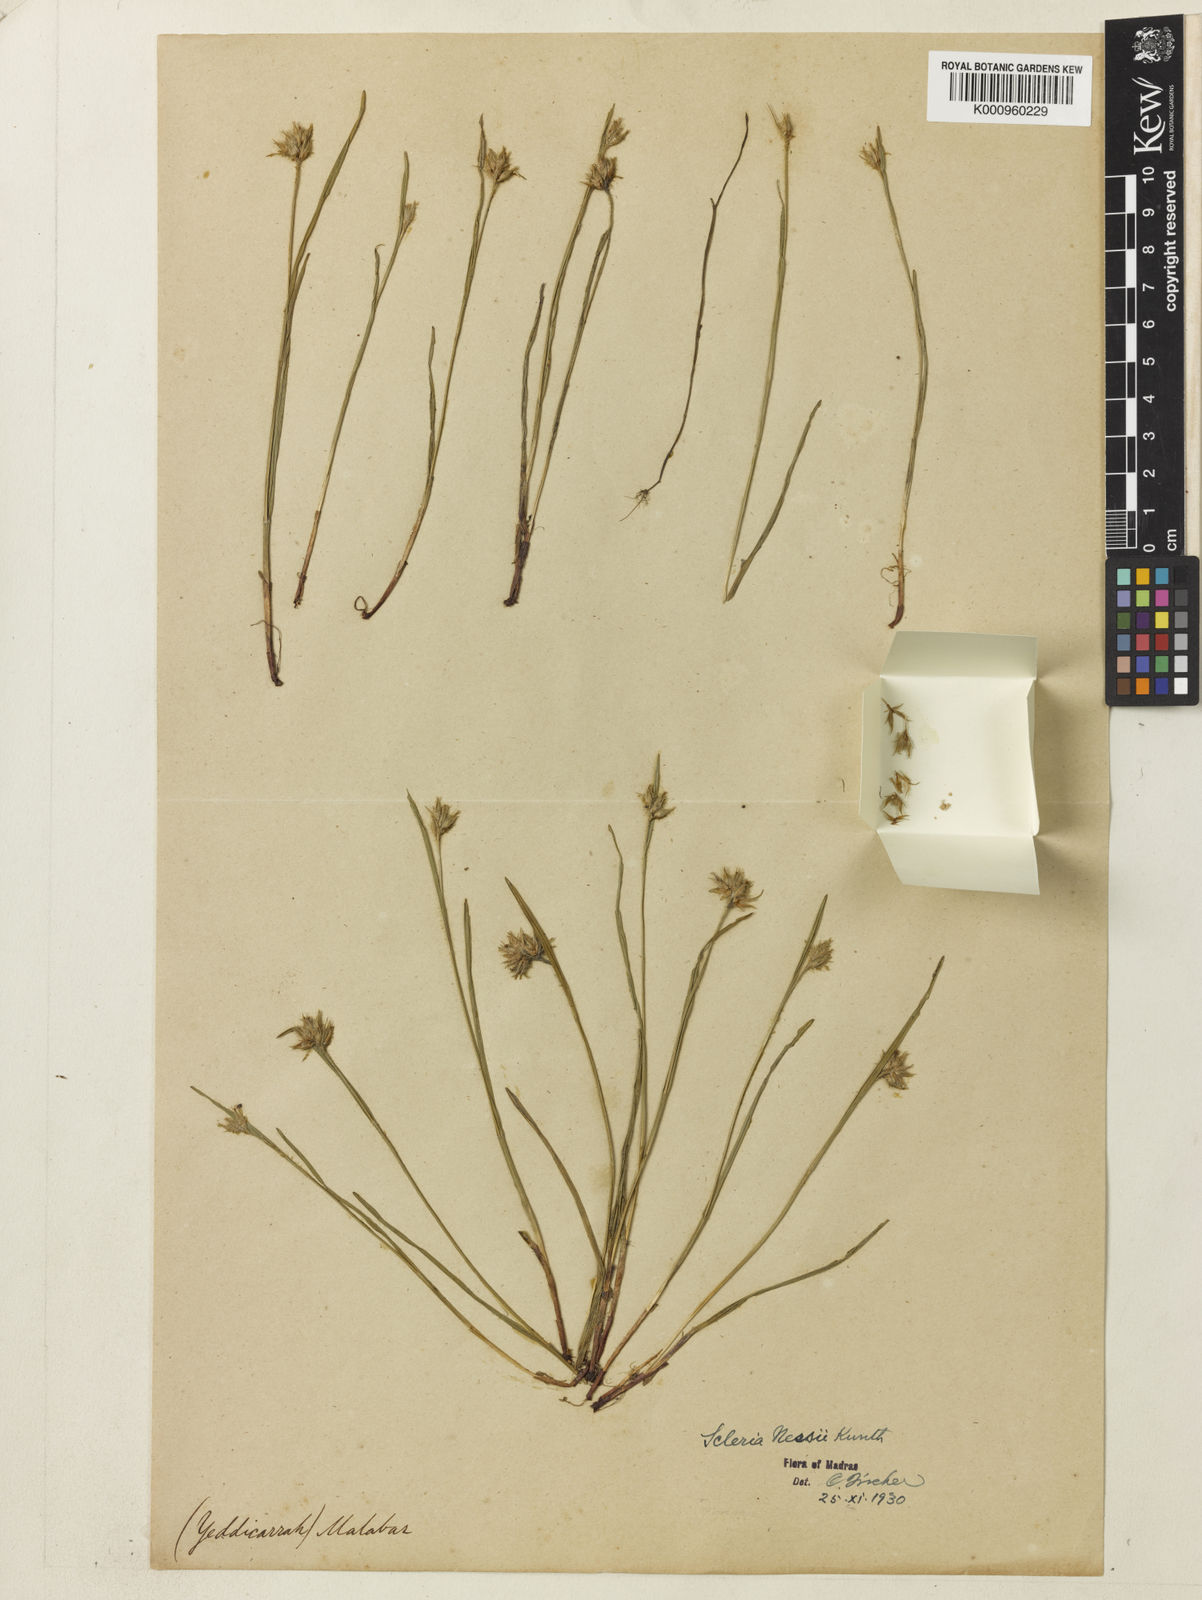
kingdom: Plantae
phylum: Tracheophyta
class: Liliopsida
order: Poales
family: Cyperaceae
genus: Scleria
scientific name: Scleria neesii
